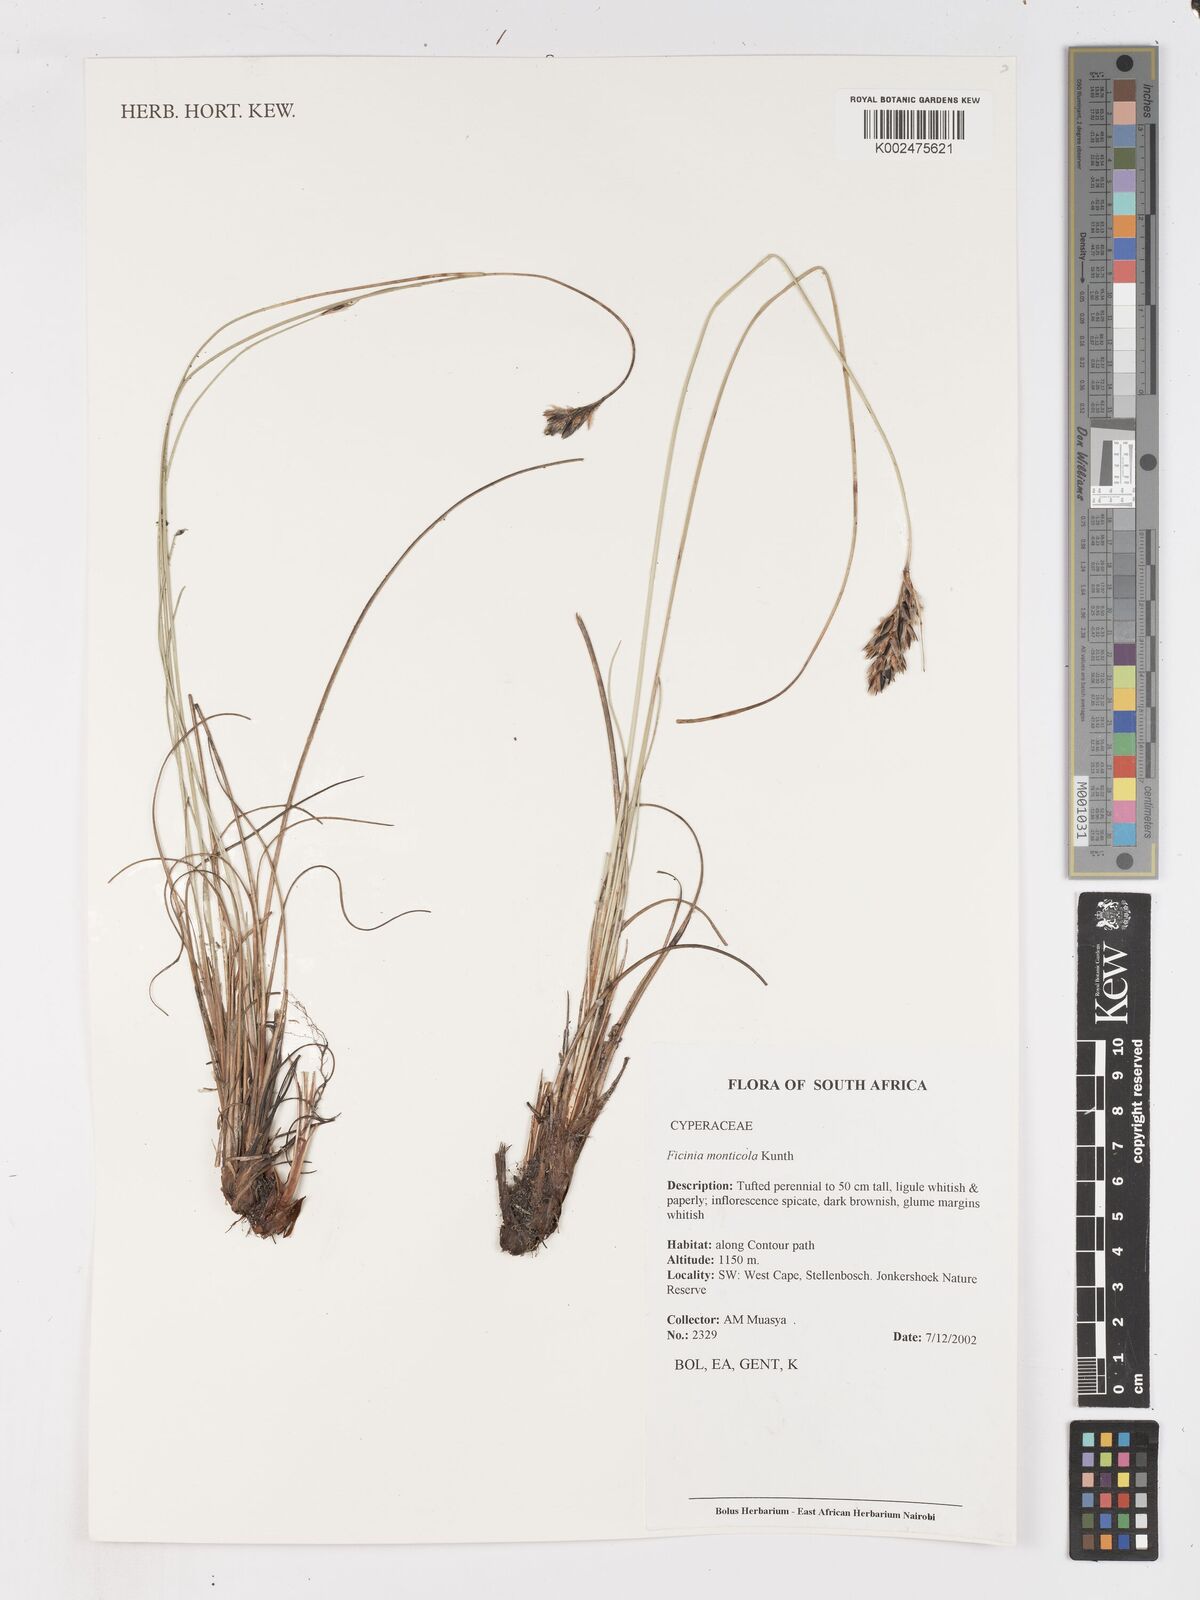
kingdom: Plantae
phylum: Tracheophyta
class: Liliopsida
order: Poales
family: Cyperaceae
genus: Ficinia
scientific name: Ficinia monticola
